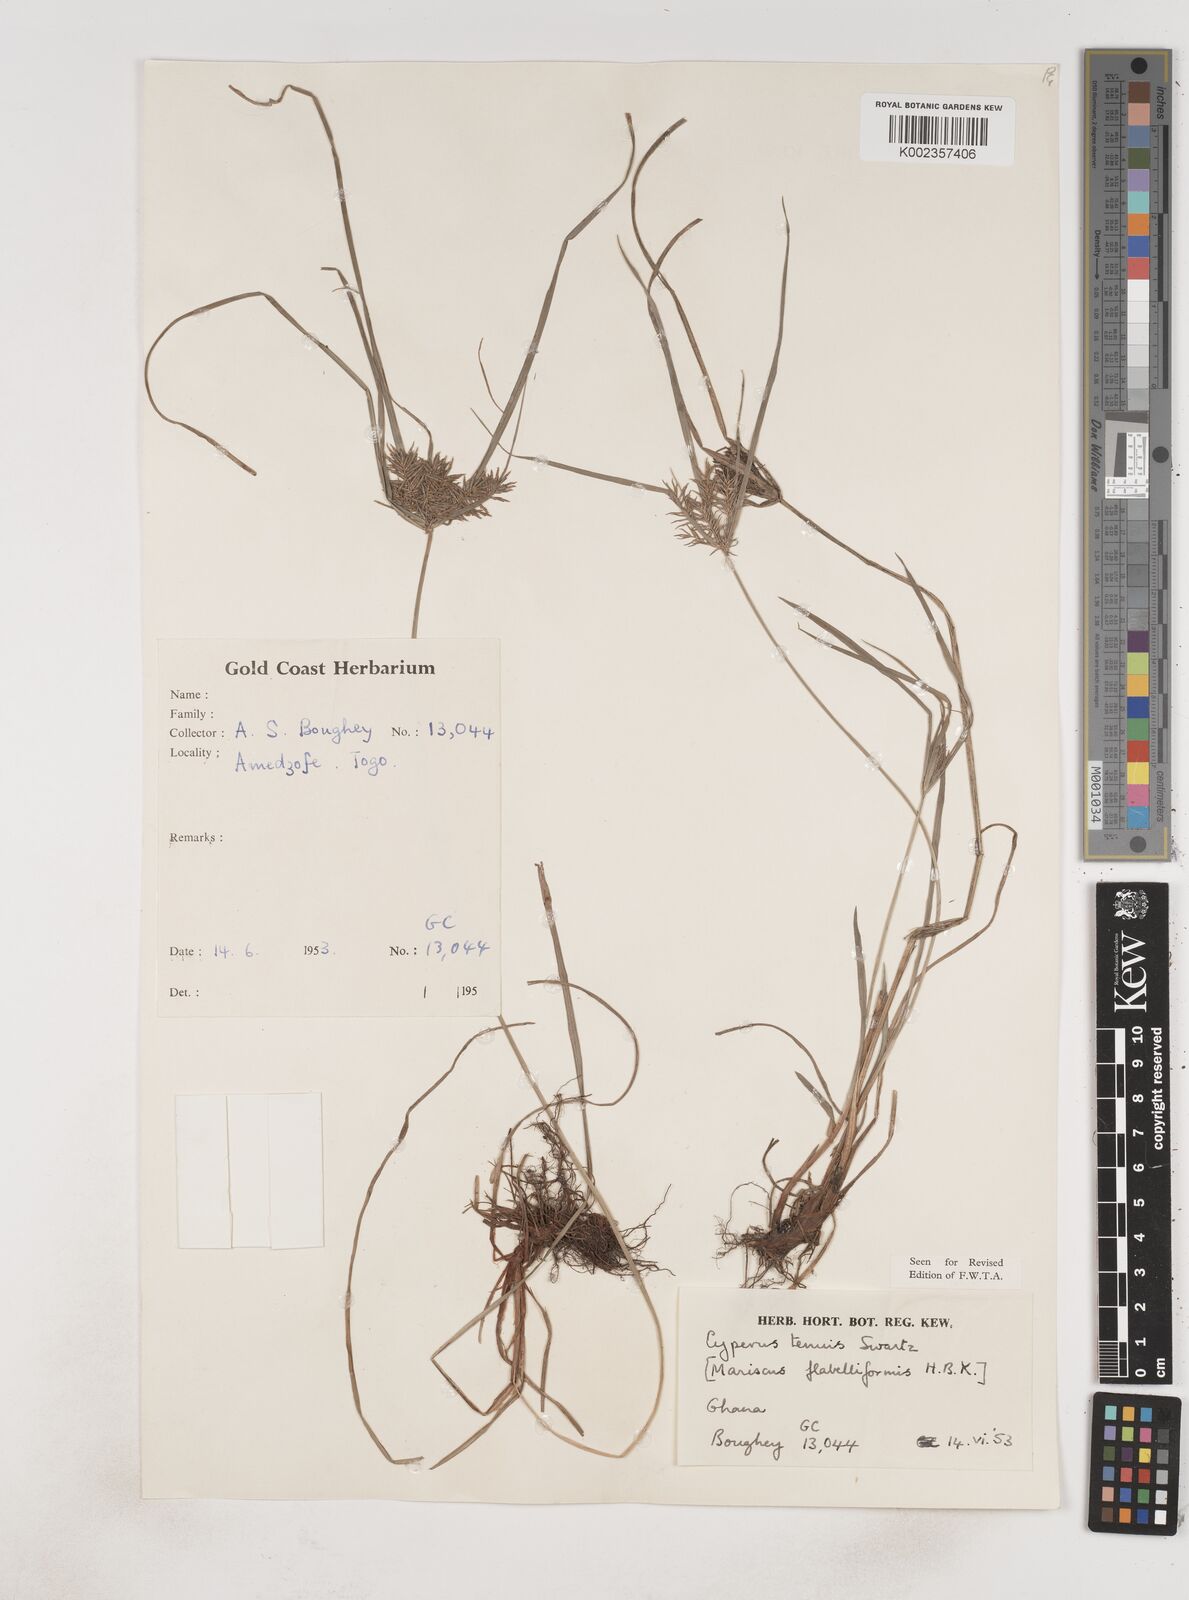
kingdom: Plantae
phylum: Tracheophyta
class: Liliopsida
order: Poales
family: Cyperaceae
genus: Cyperus
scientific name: Cyperus tenuis
